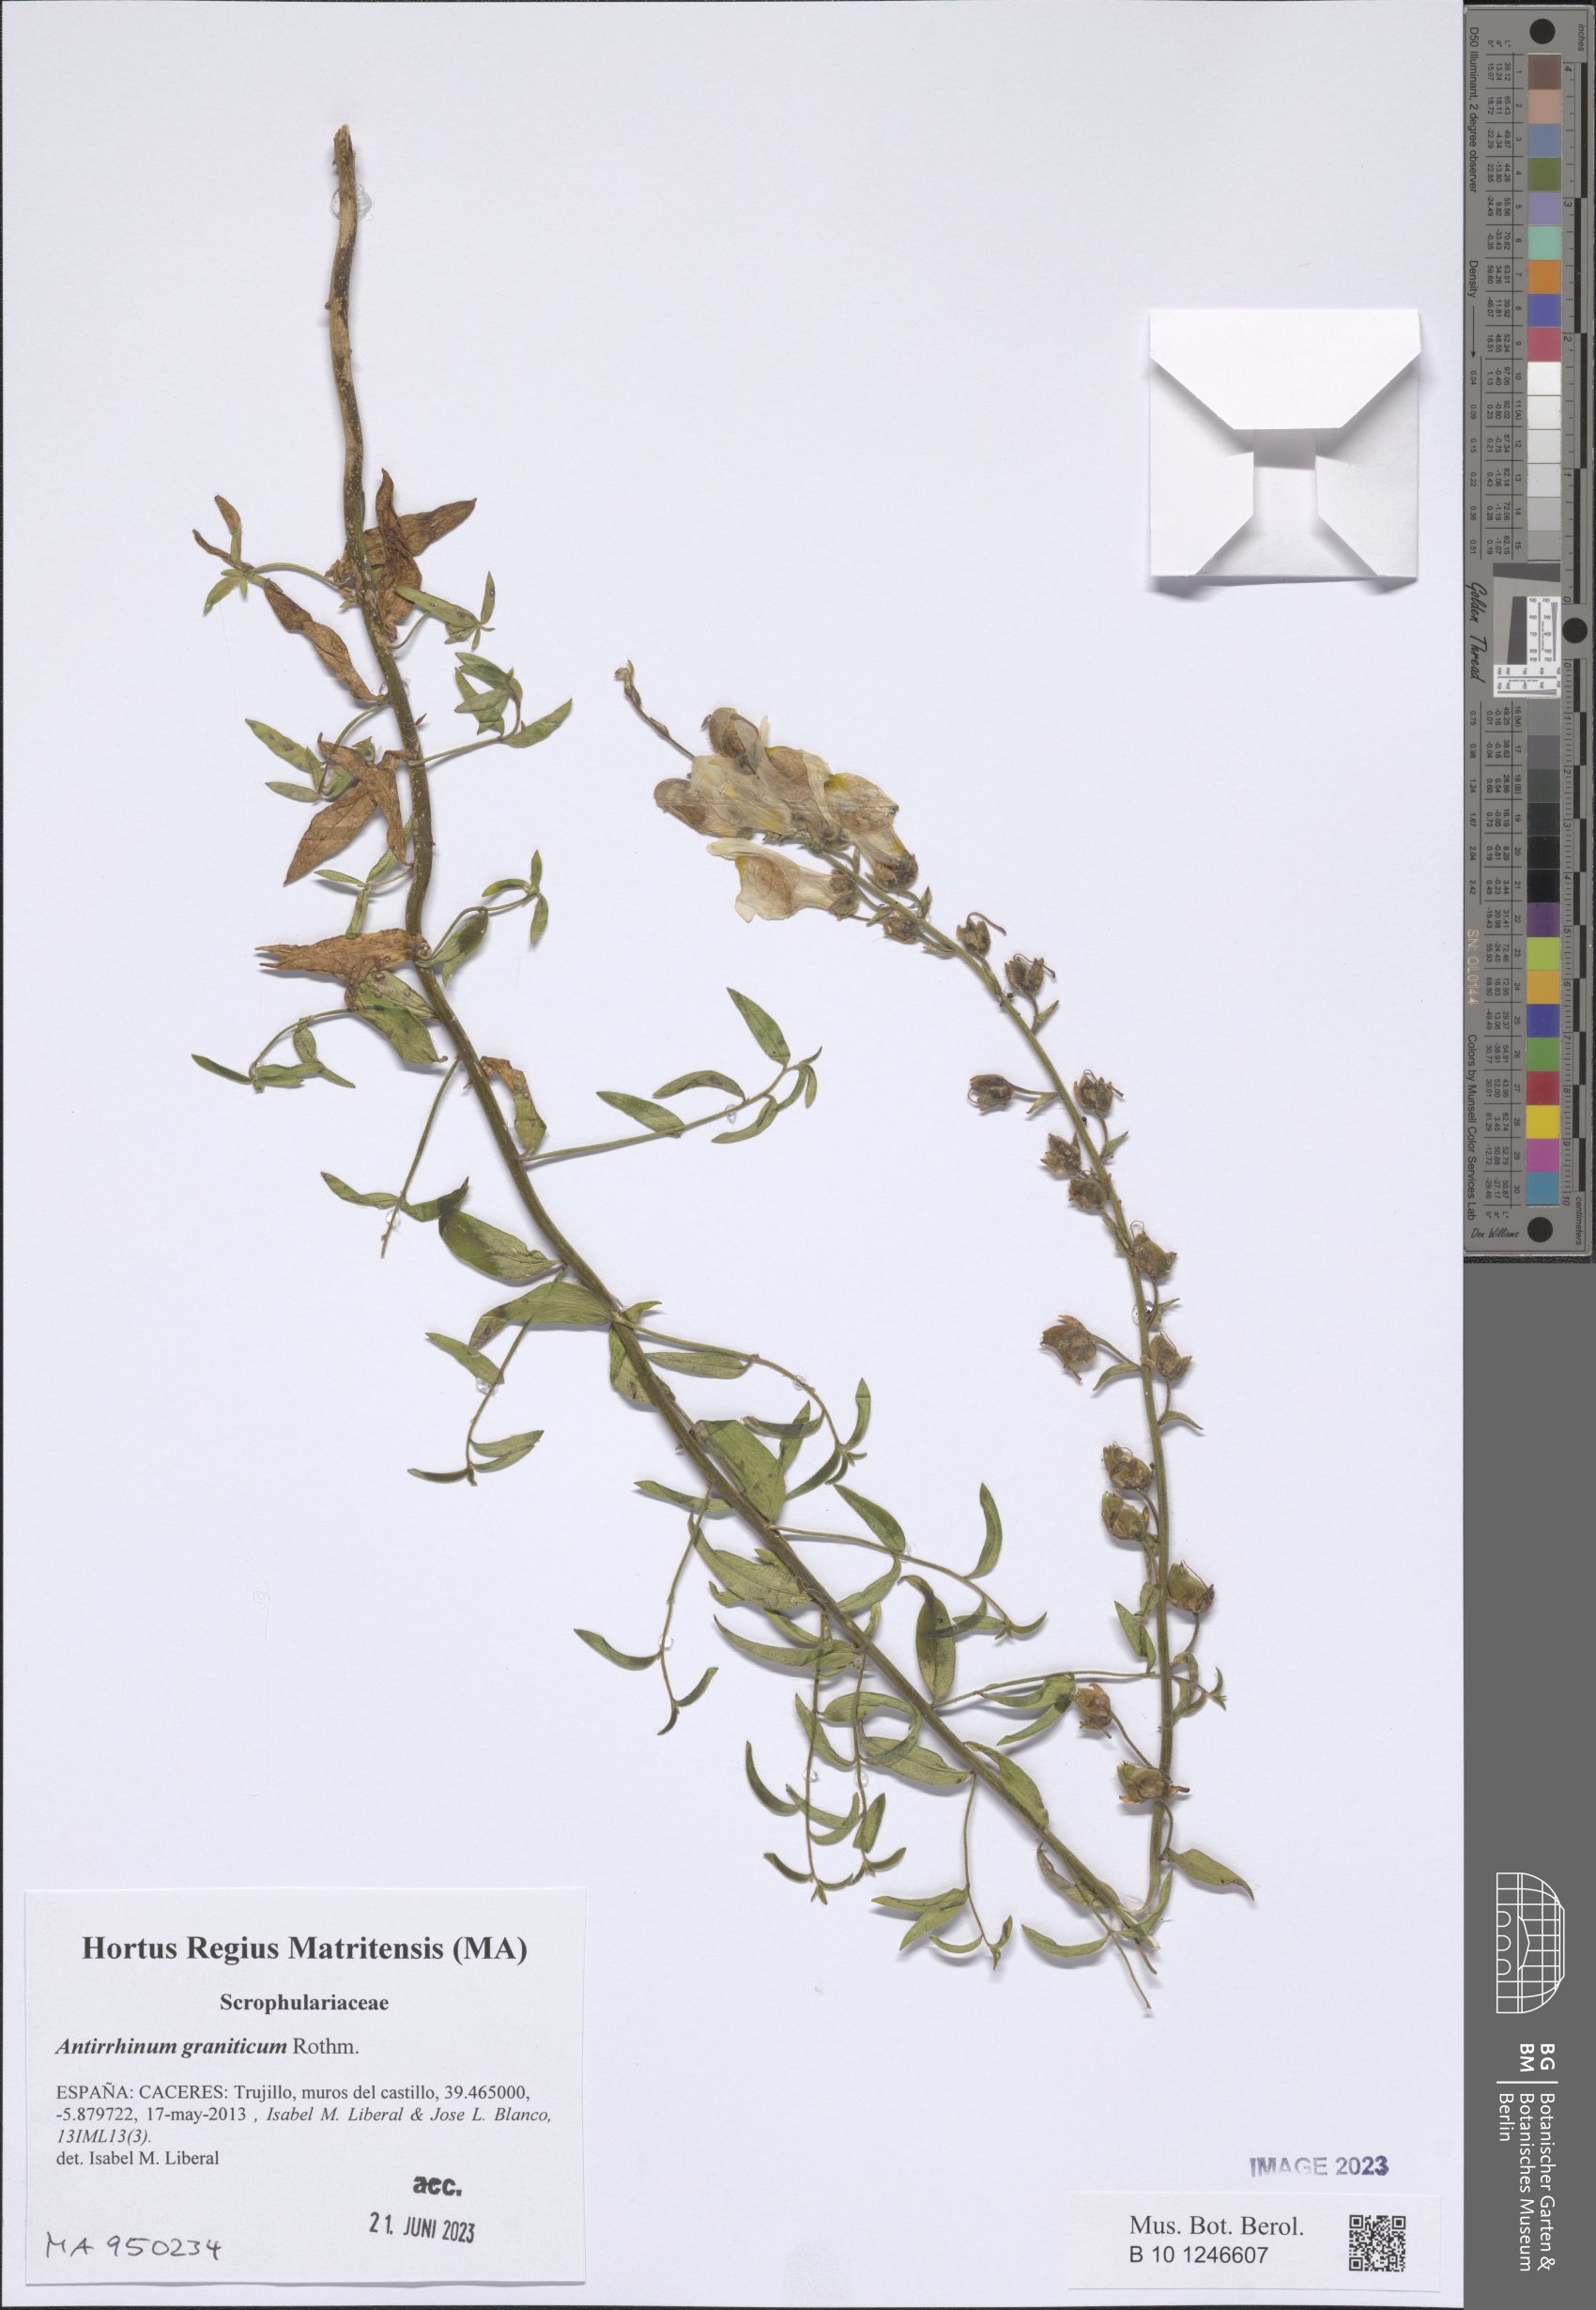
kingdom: Plantae
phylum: Tracheophyta
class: Magnoliopsida
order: Lamiales
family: Plantaginaceae
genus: Antirrhinum
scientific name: Antirrhinum graniticum
